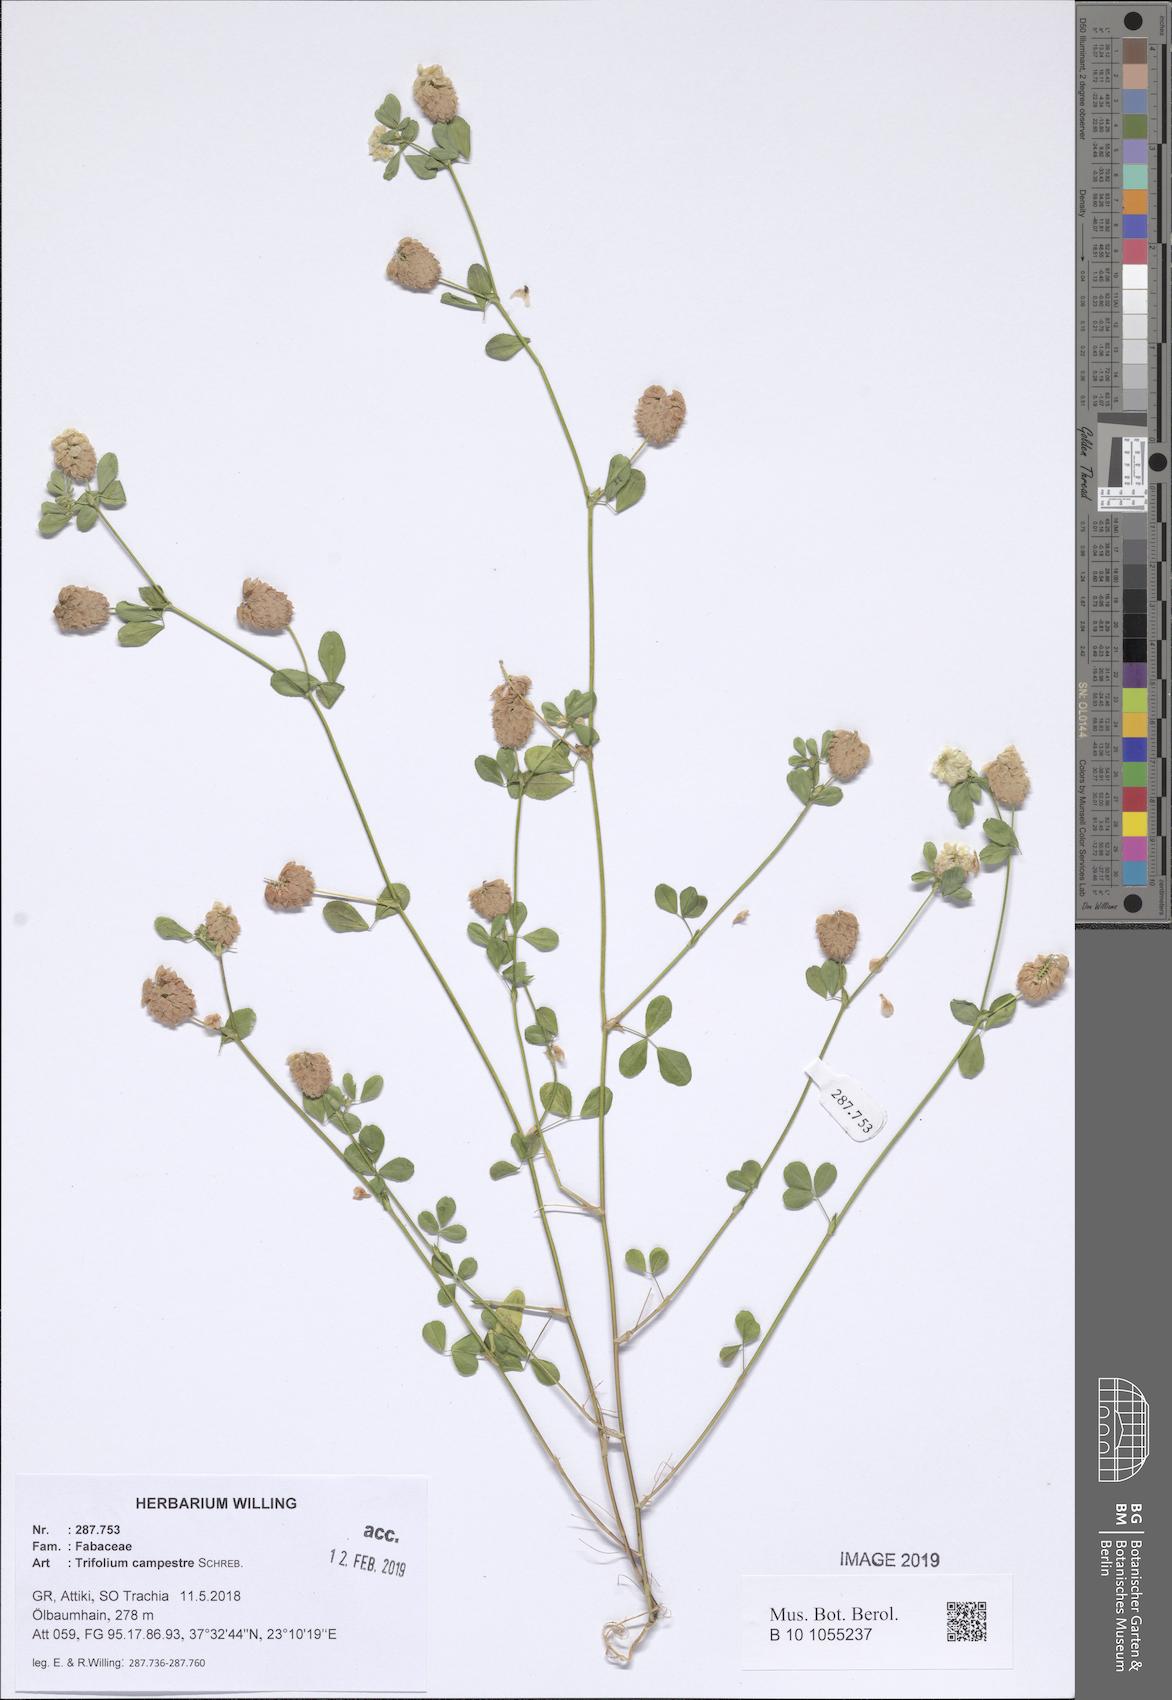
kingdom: Plantae
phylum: Tracheophyta
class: Magnoliopsida
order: Fabales
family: Fabaceae
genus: Trifolium
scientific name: Trifolium campestre
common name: Field clover
